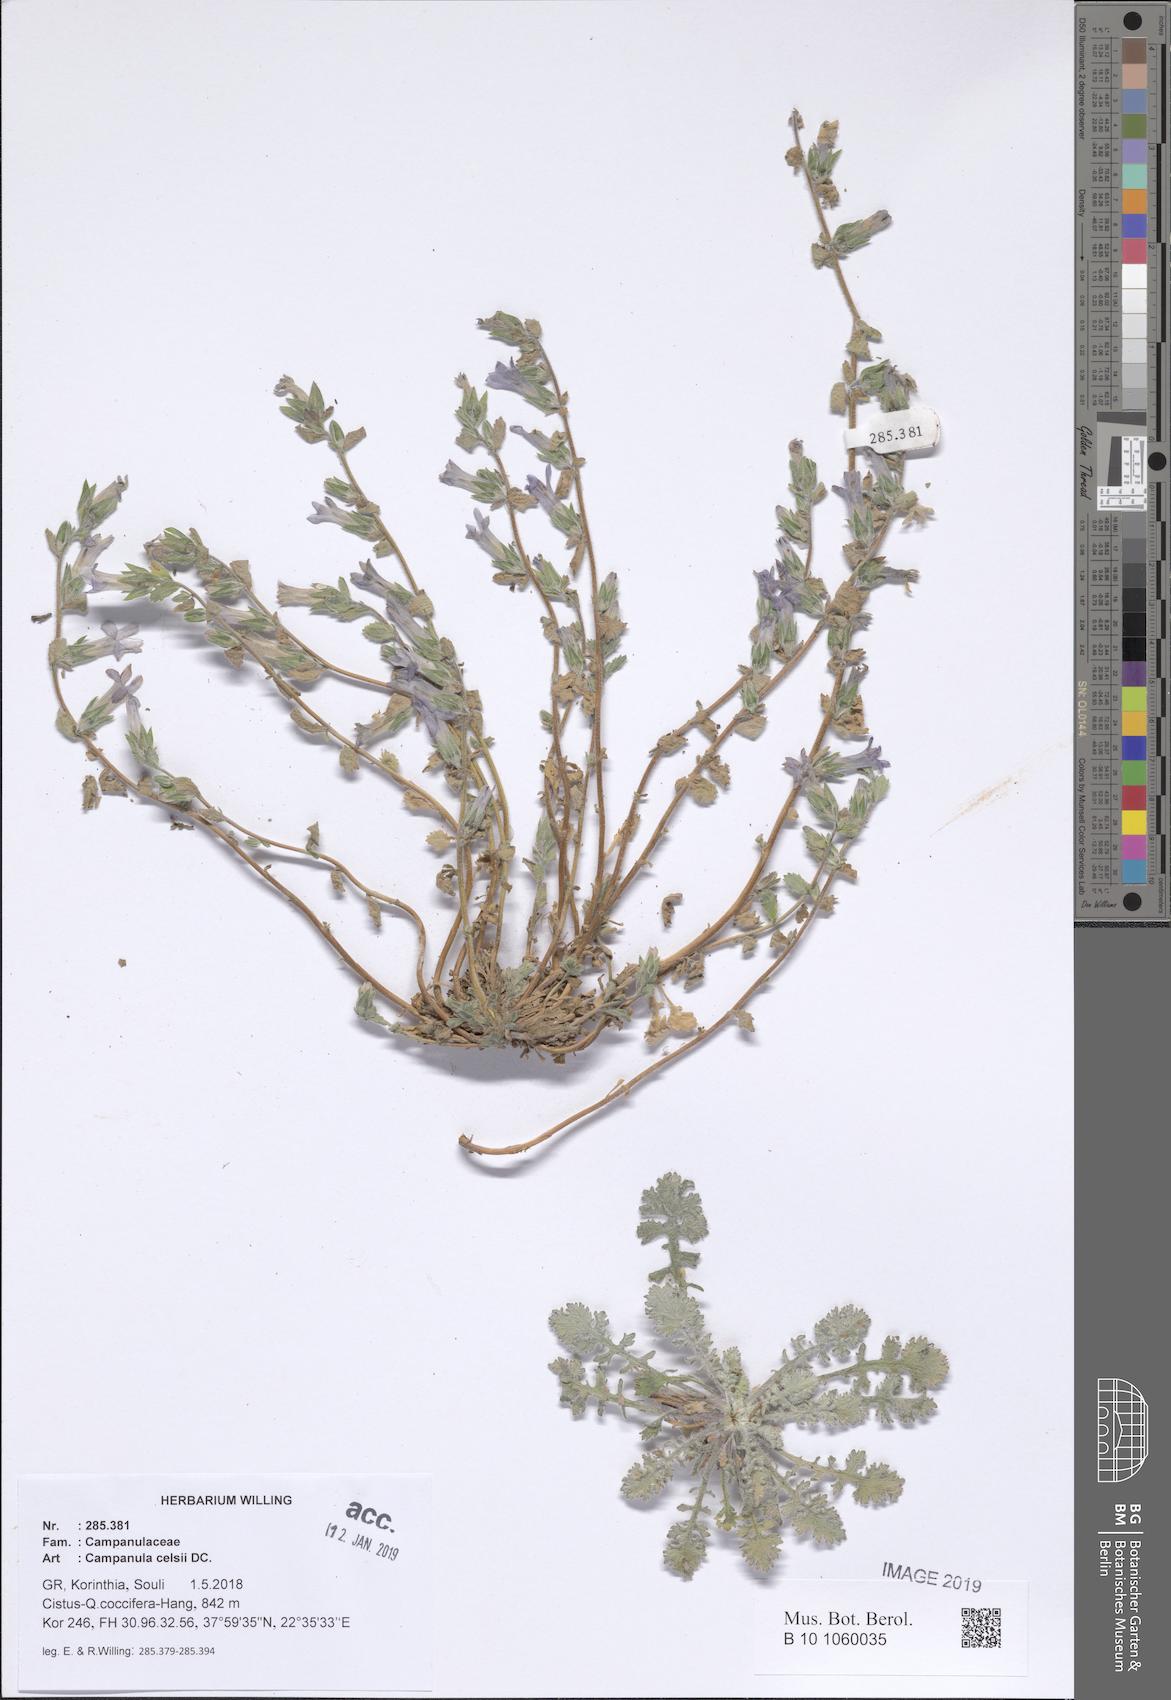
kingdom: Plantae
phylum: Tracheophyta
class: Magnoliopsida
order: Asterales
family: Campanulaceae
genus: Campanula
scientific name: Campanula celsii
